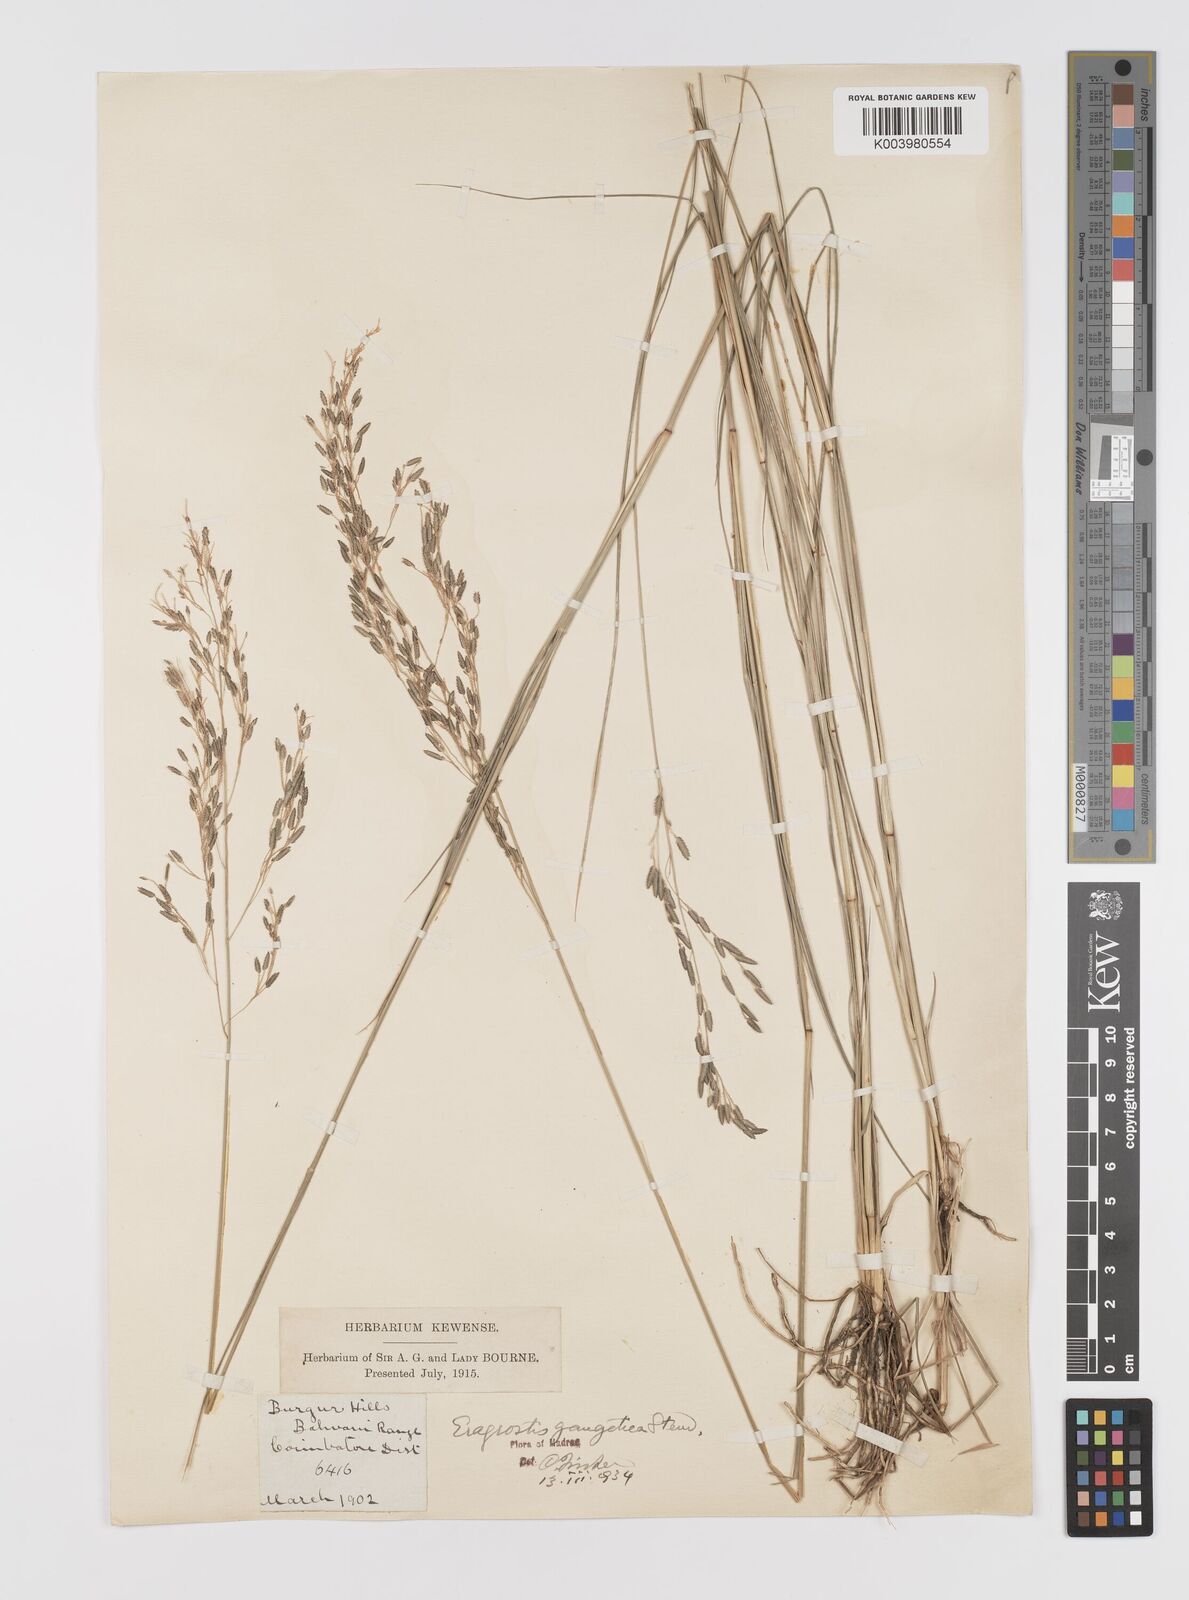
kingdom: Plantae
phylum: Tracheophyta
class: Liliopsida
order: Poales
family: Poaceae
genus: Eragrostis
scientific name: Eragrostis
